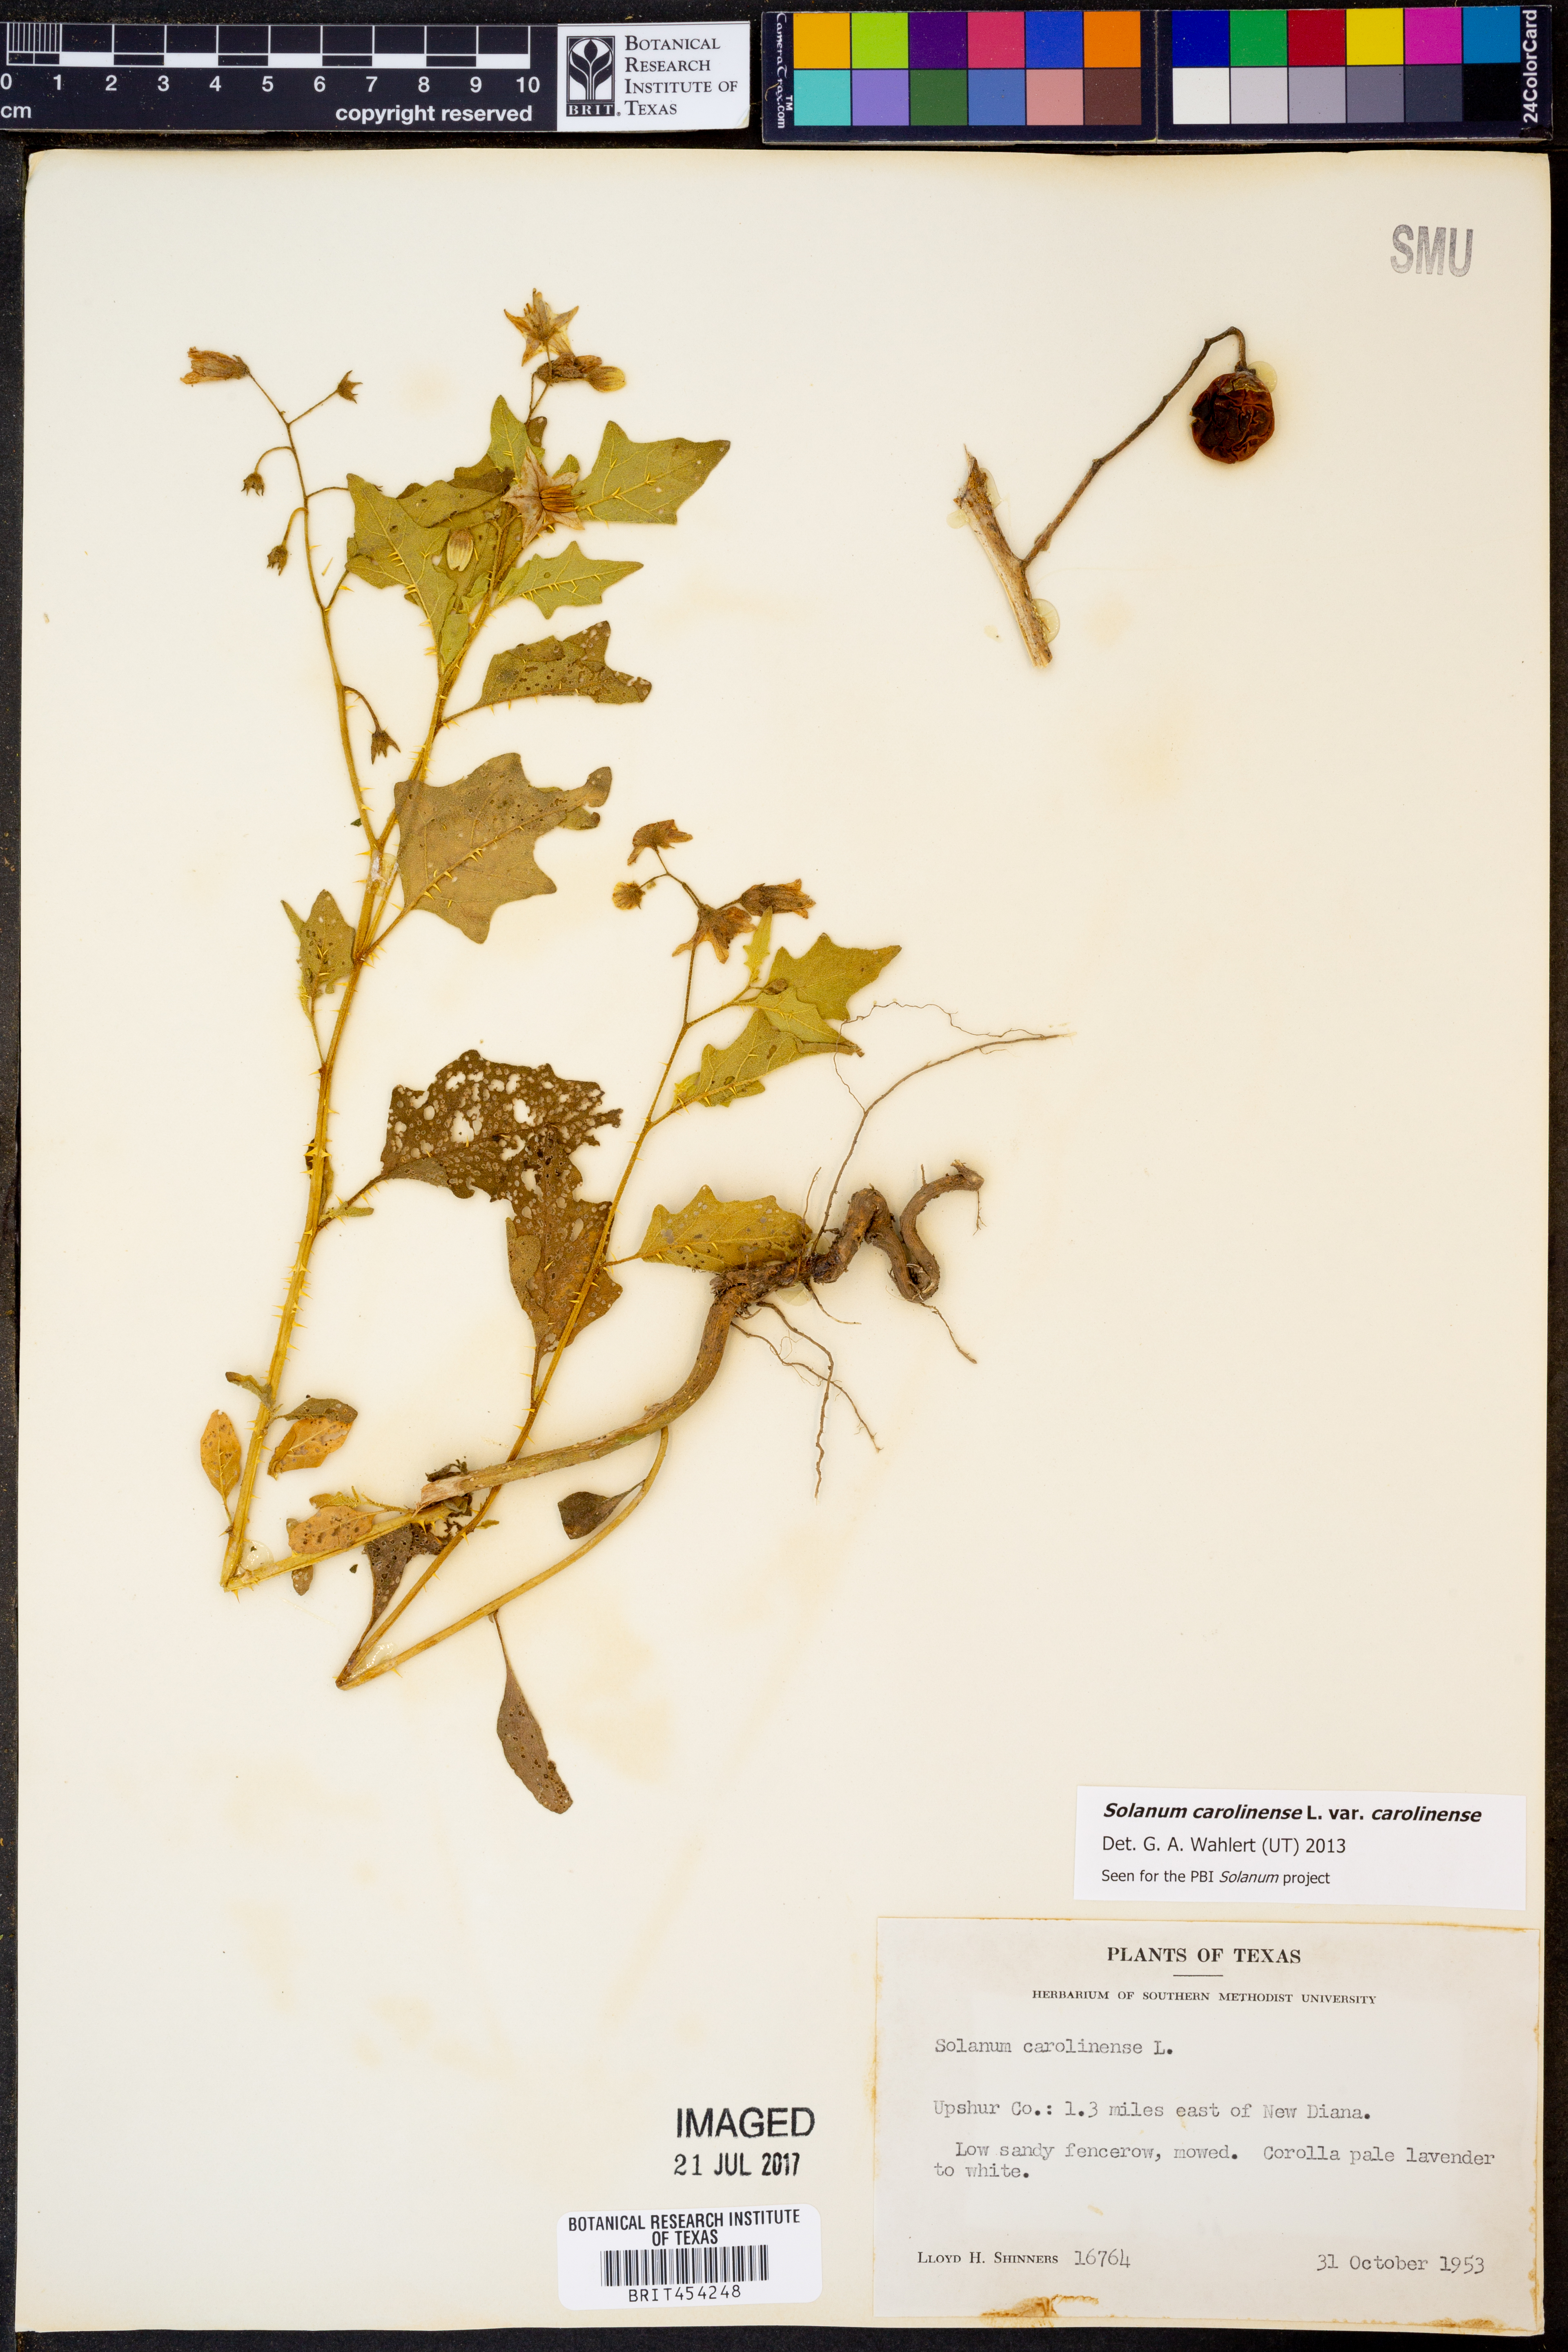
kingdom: Plantae
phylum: Tracheophyta
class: Magnoliopsida
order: Solanales
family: Solanaceae
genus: Solanum
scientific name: Solanum carolinense
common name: Horse-nettle
